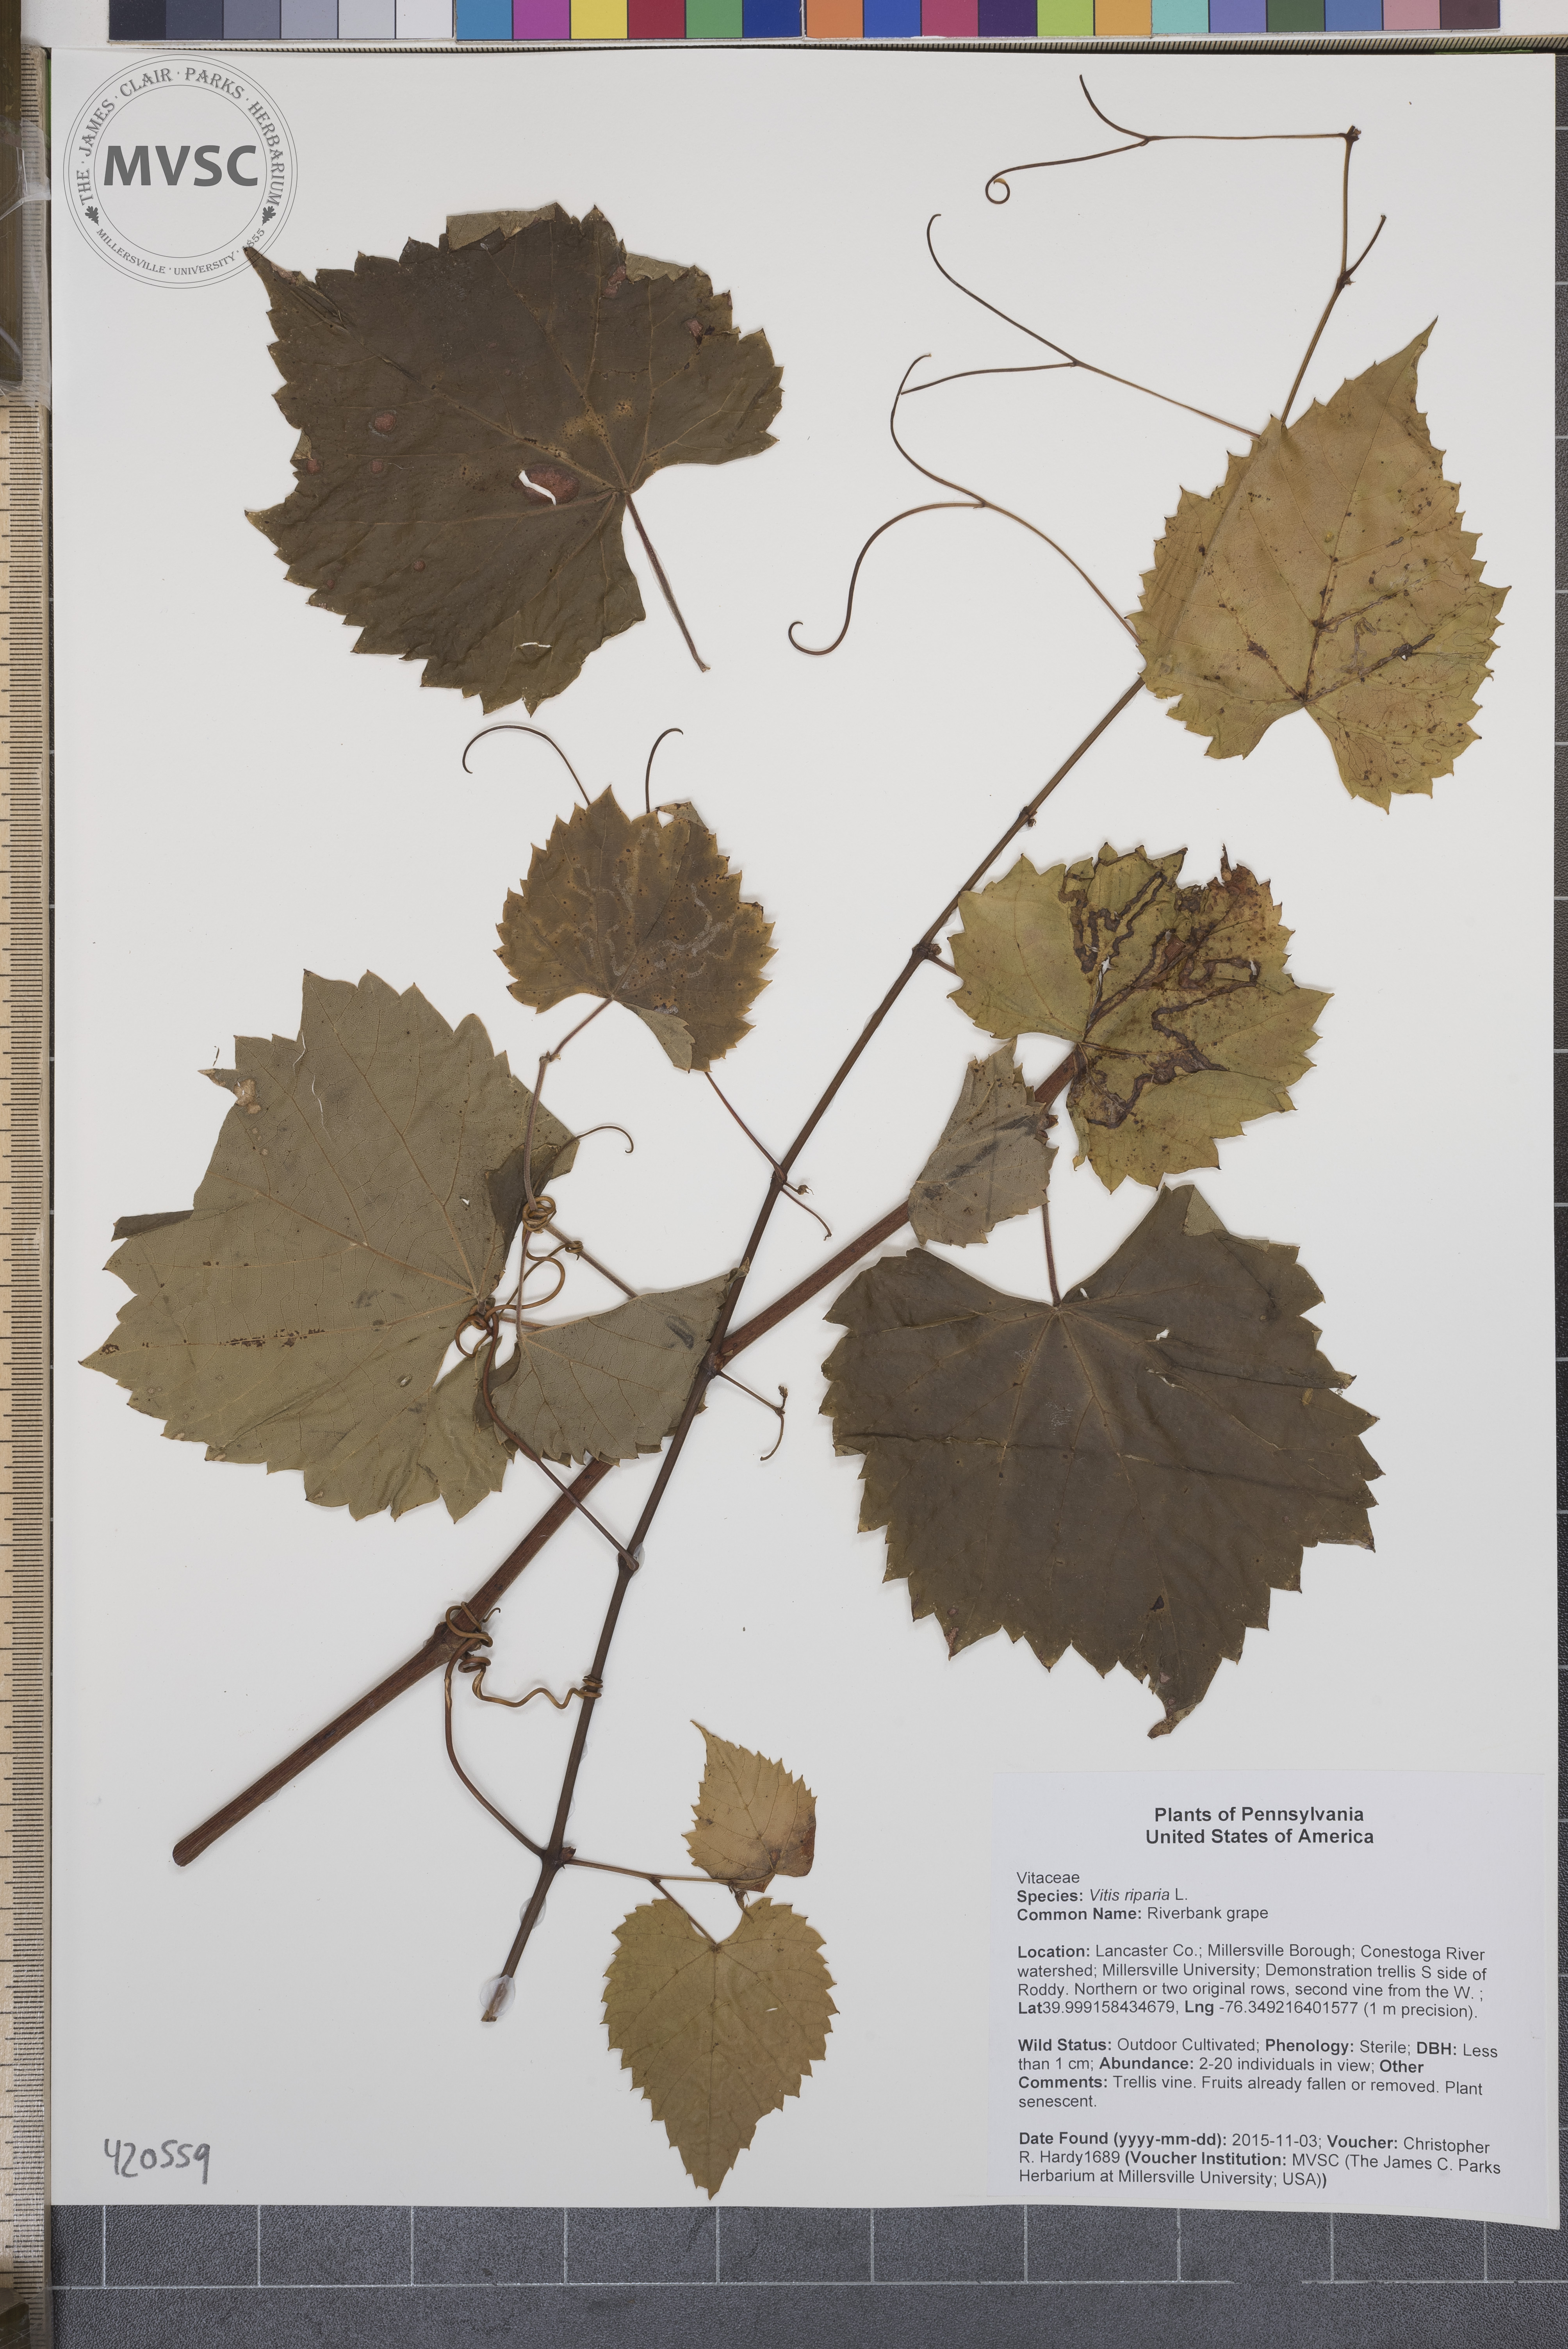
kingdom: Plantae
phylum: Tracheophyta
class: Magnoliopsida
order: Vitales
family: Vitaceae
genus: Vitis
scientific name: Vitis riparia
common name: Riverbank grape
